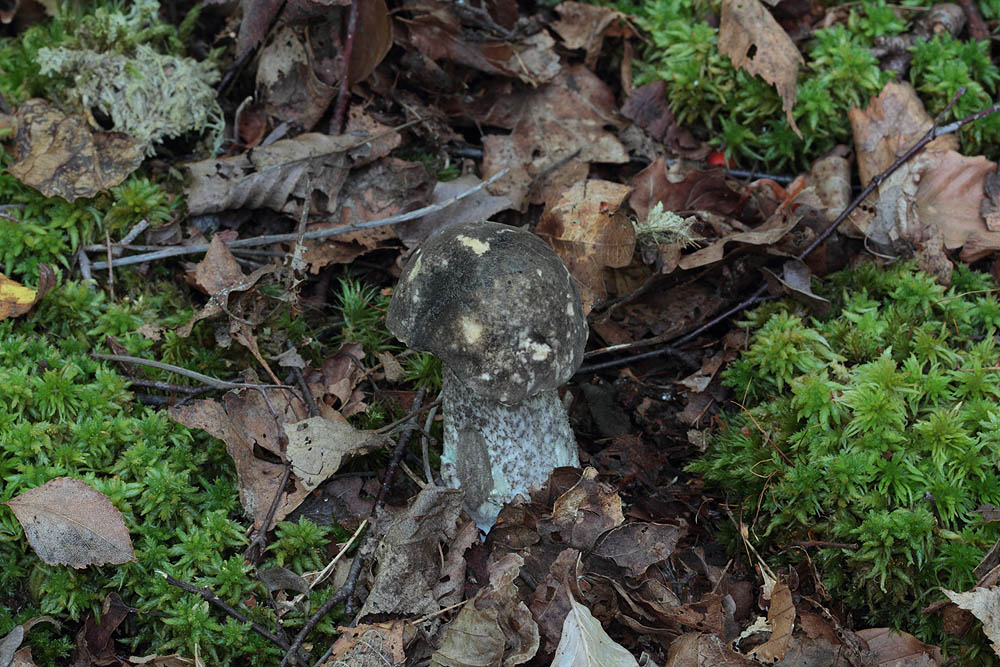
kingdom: Fungi
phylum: Basidiomycota
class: Agaricomycetes
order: Boletales
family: Boletaceae
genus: Leccinum
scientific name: Leccinum variicolor
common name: flammet skælrørhat
